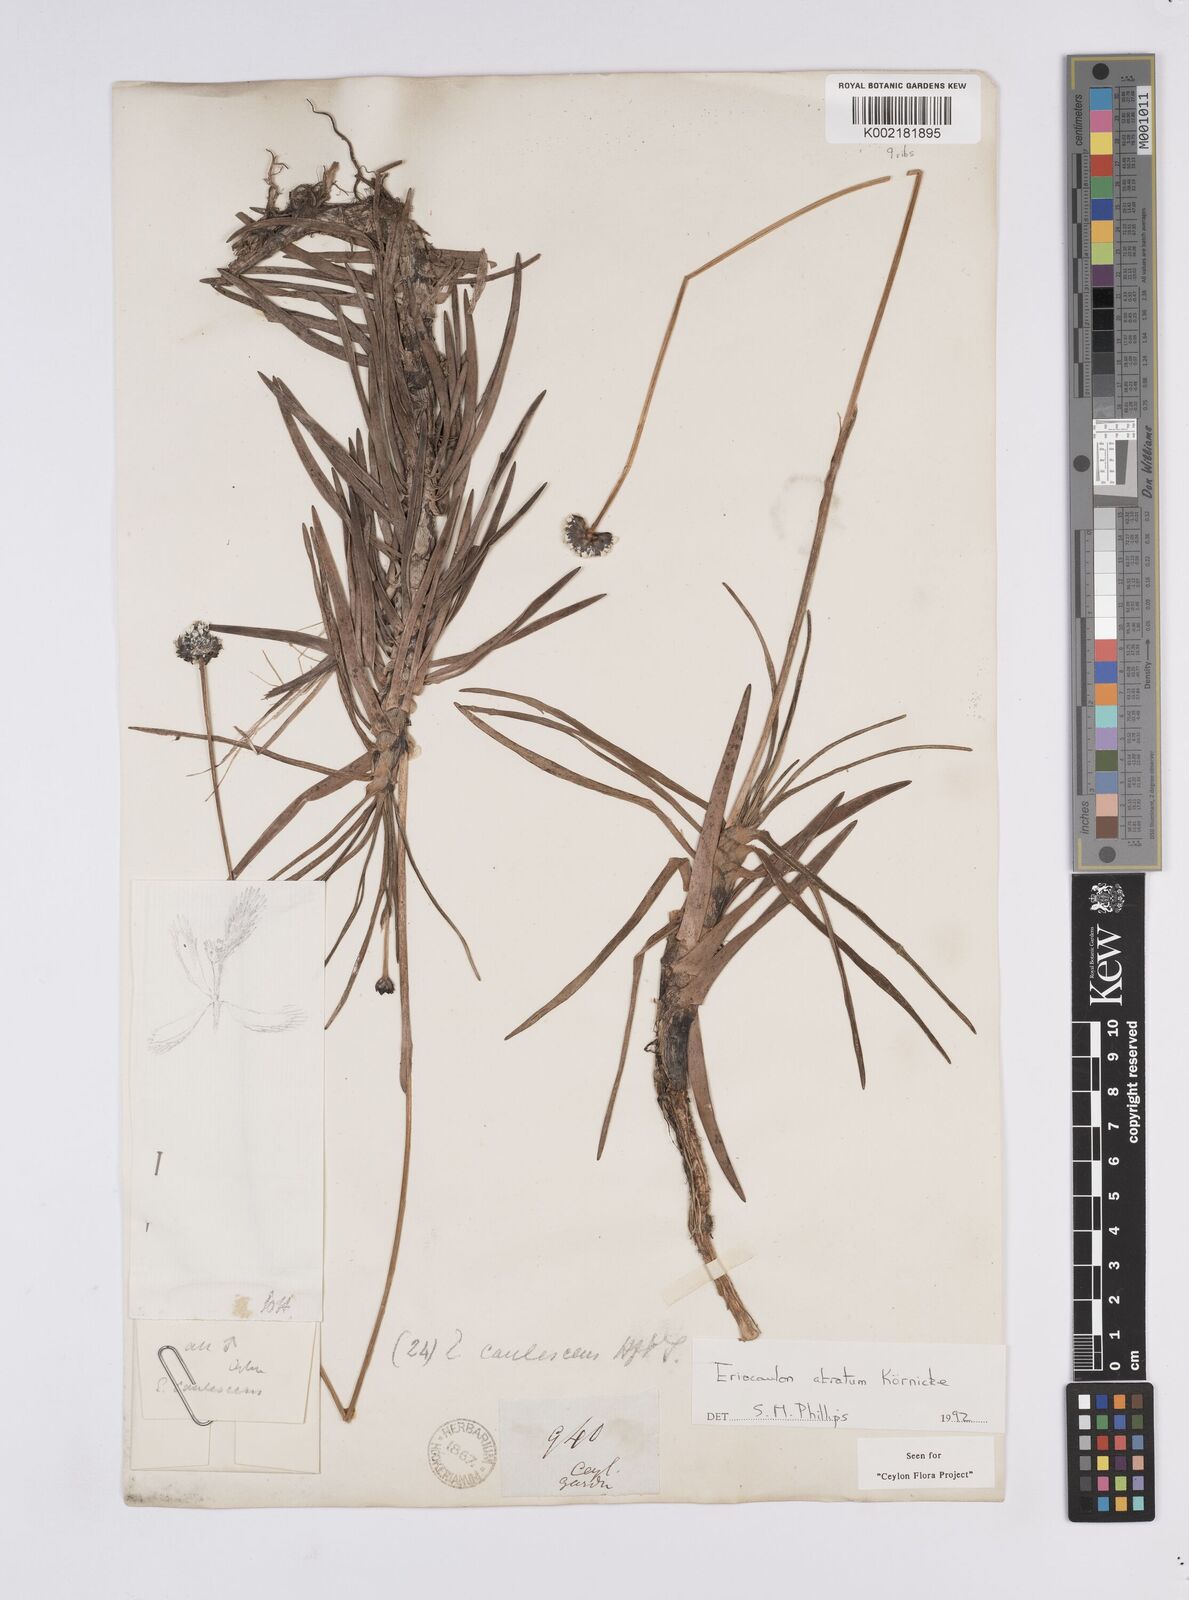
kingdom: Plantae
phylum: Tracheophyta
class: Liliopsida
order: Poales
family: Eriocaulaceae
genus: Eriocaulon
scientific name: Eriocaulon philippo-coburgii
